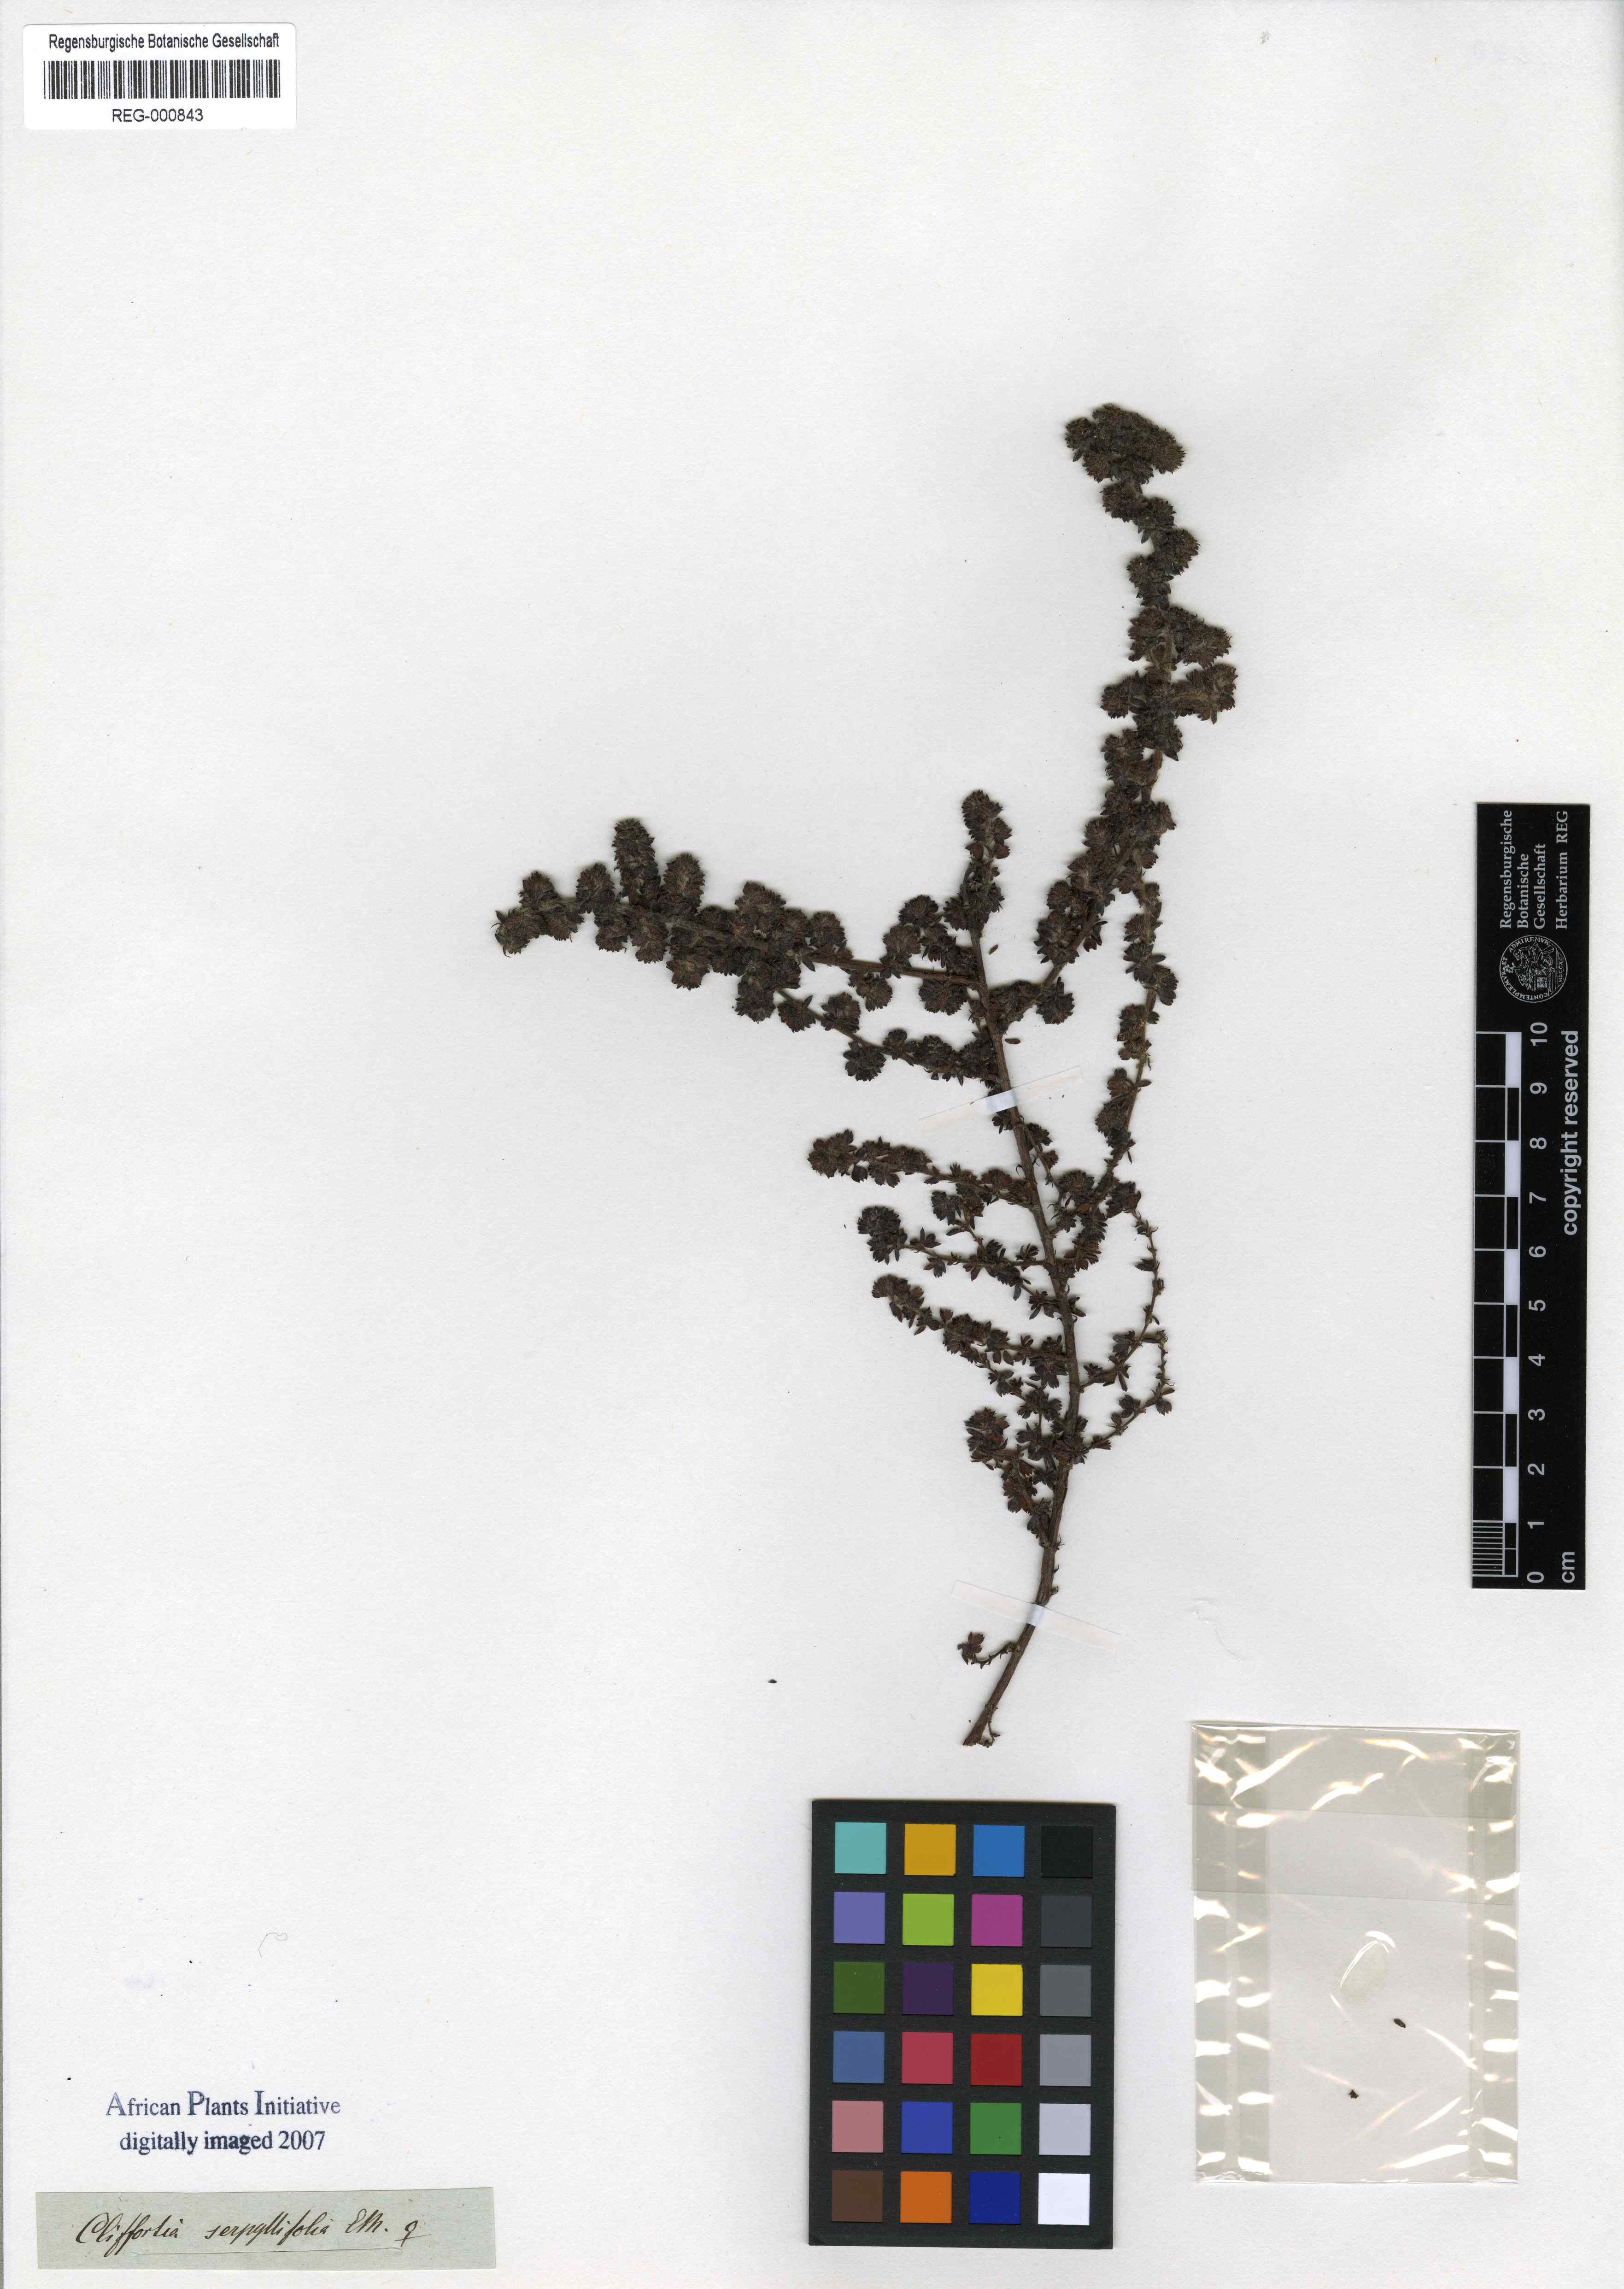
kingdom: Plantae
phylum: Tracheophyta
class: Magnoliopsida
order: Rosales
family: Rosaceae
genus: Cliffortia
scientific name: Cliffortia serpyllifolia
